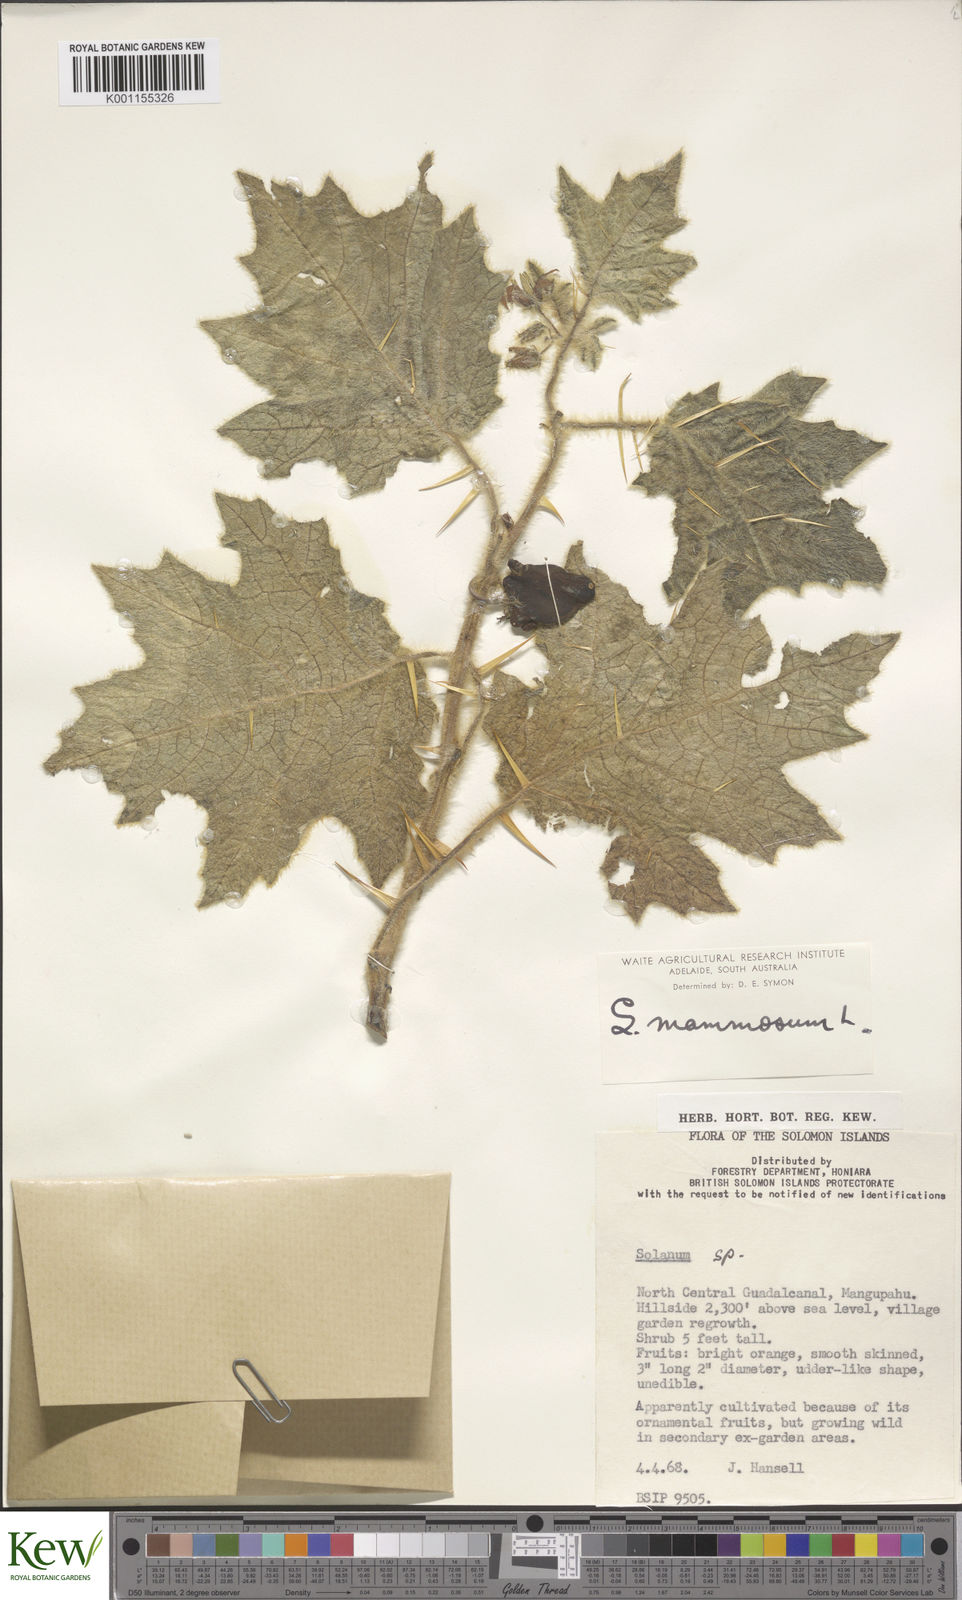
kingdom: Plantae
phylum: Tracheophyta
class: Magnoliopsida
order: Solanales
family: Solanaceae
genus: Solanum
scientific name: Solanum mammosum
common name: Nipple fruit
